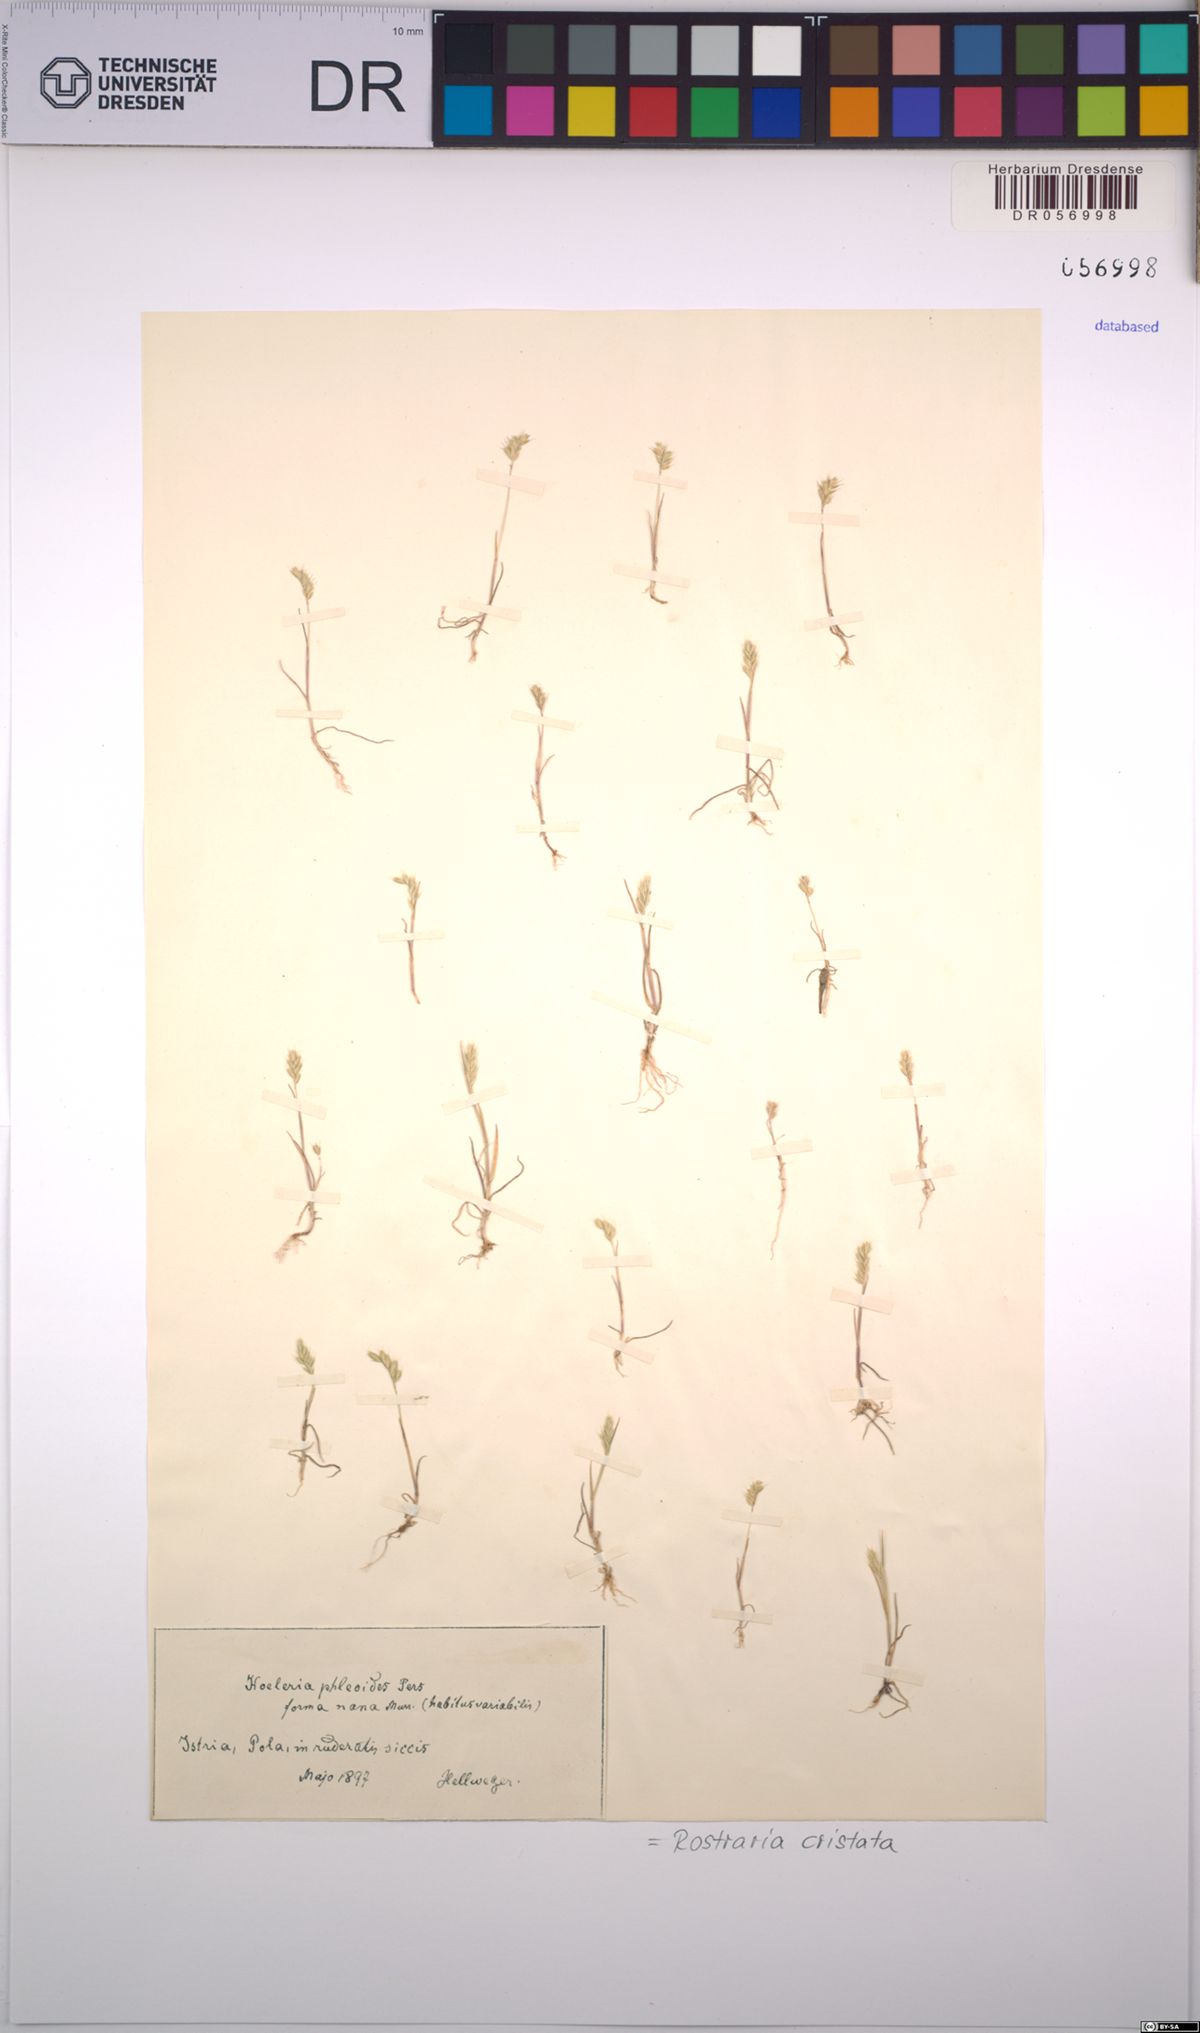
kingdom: Plantae
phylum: Tracheophyta
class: Liliopsida
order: Poales
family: Poaceae
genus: Rostraria
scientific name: Rostraria cristata
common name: Mediterranean hair-grass
